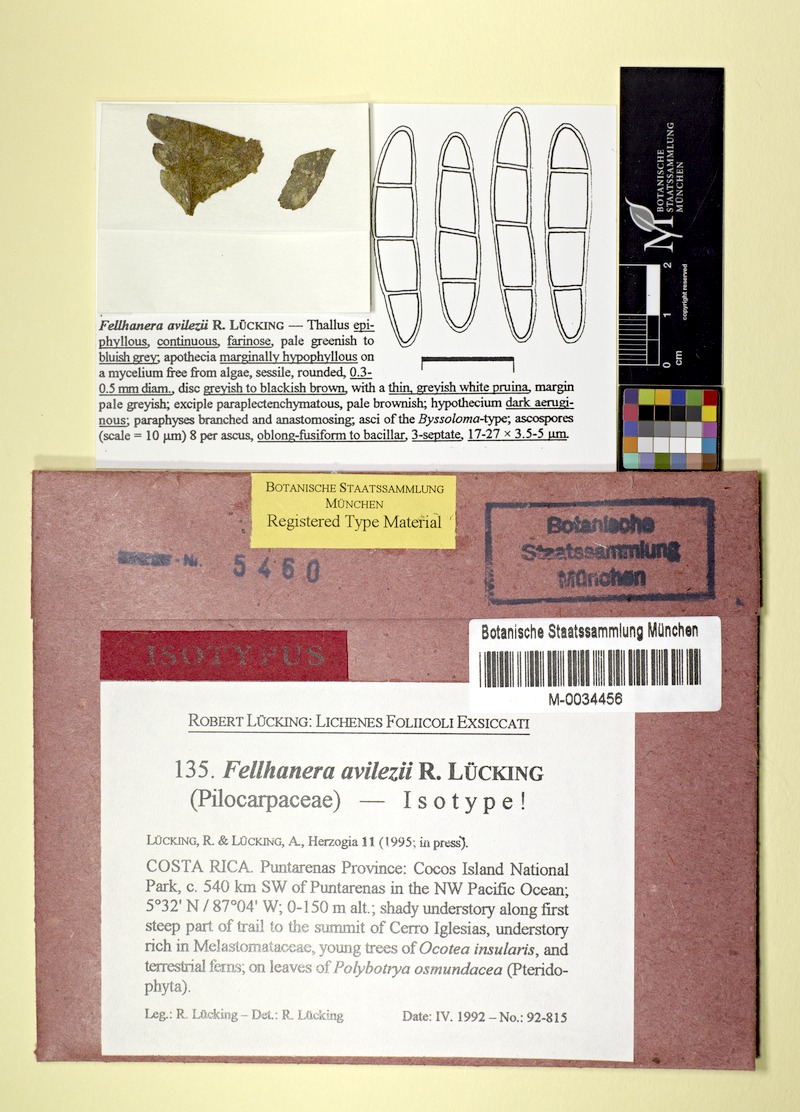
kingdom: Fungi
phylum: Ascomycota
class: Lecanoromycetes
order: Lecanorales
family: Byssolomataceae
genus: Fellhanera
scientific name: Fellhanera
